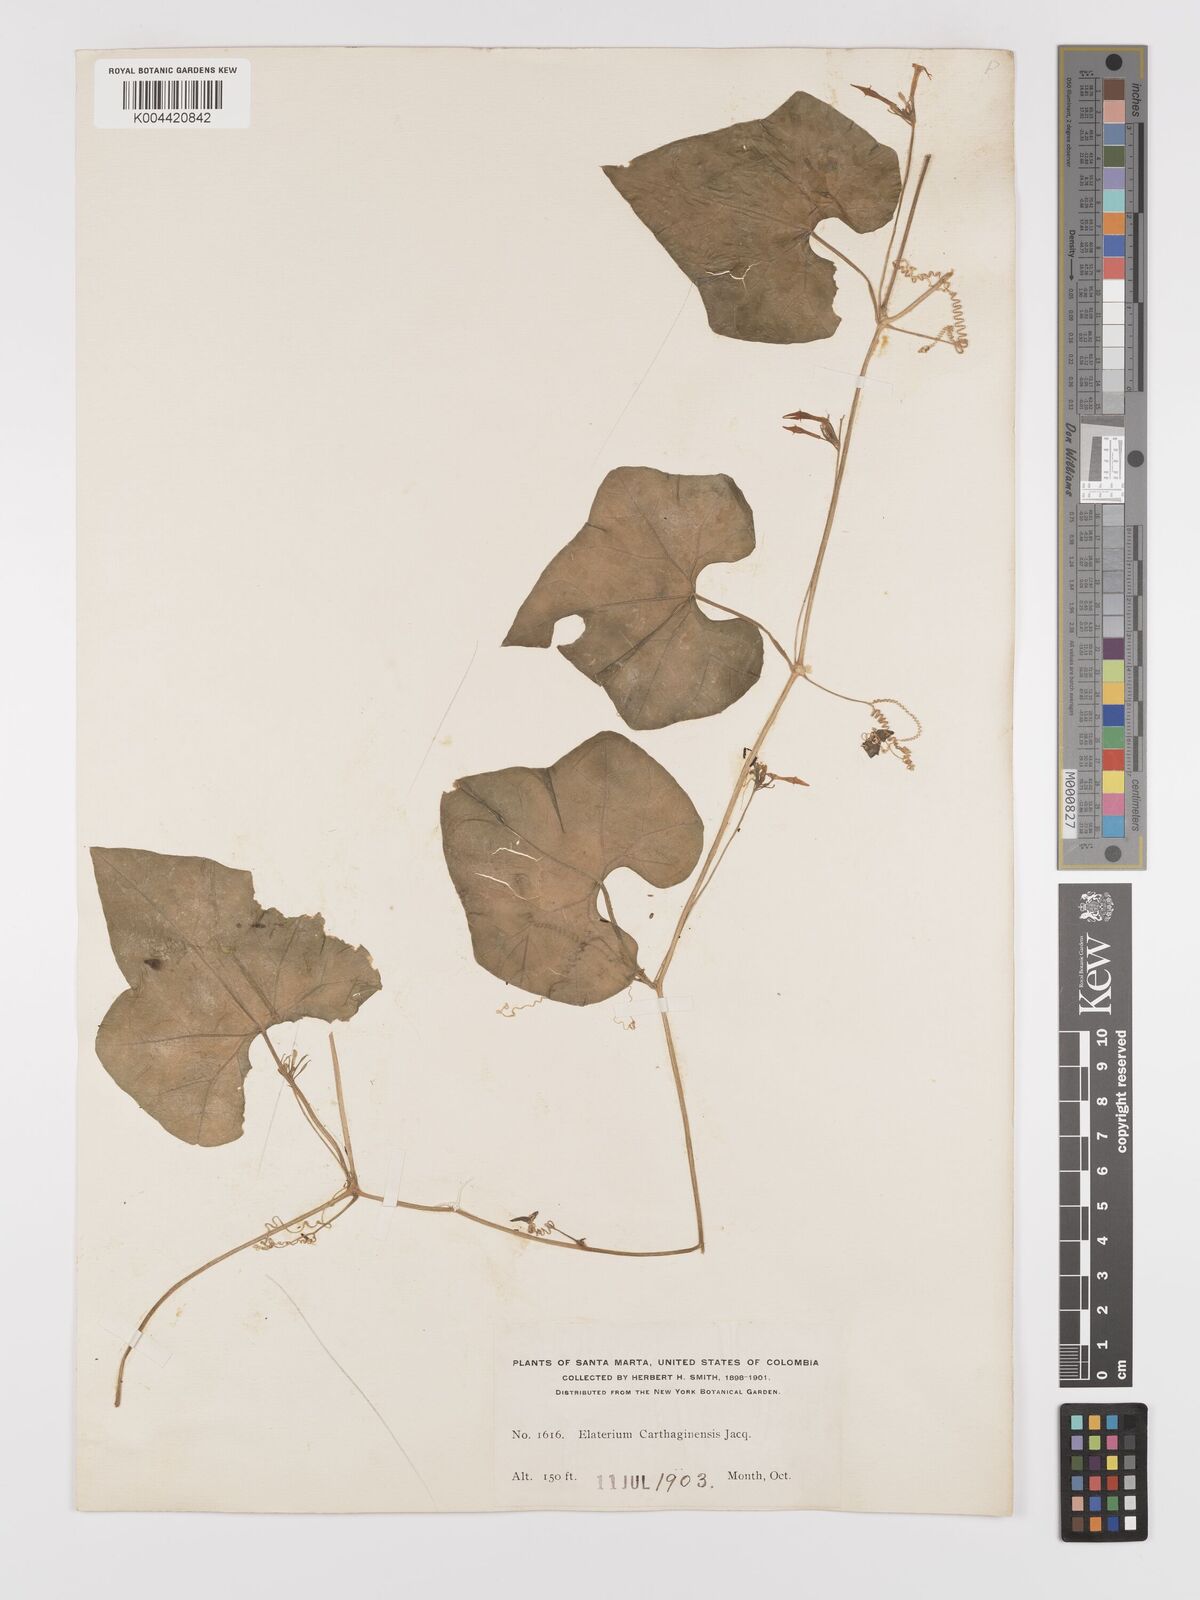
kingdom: Plantae
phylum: Tracheophyta
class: Magnoliopsida
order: Cucurbitales
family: Cucurbitaceae
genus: Cyclanthera
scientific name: Cyclanthera carthagenensis
